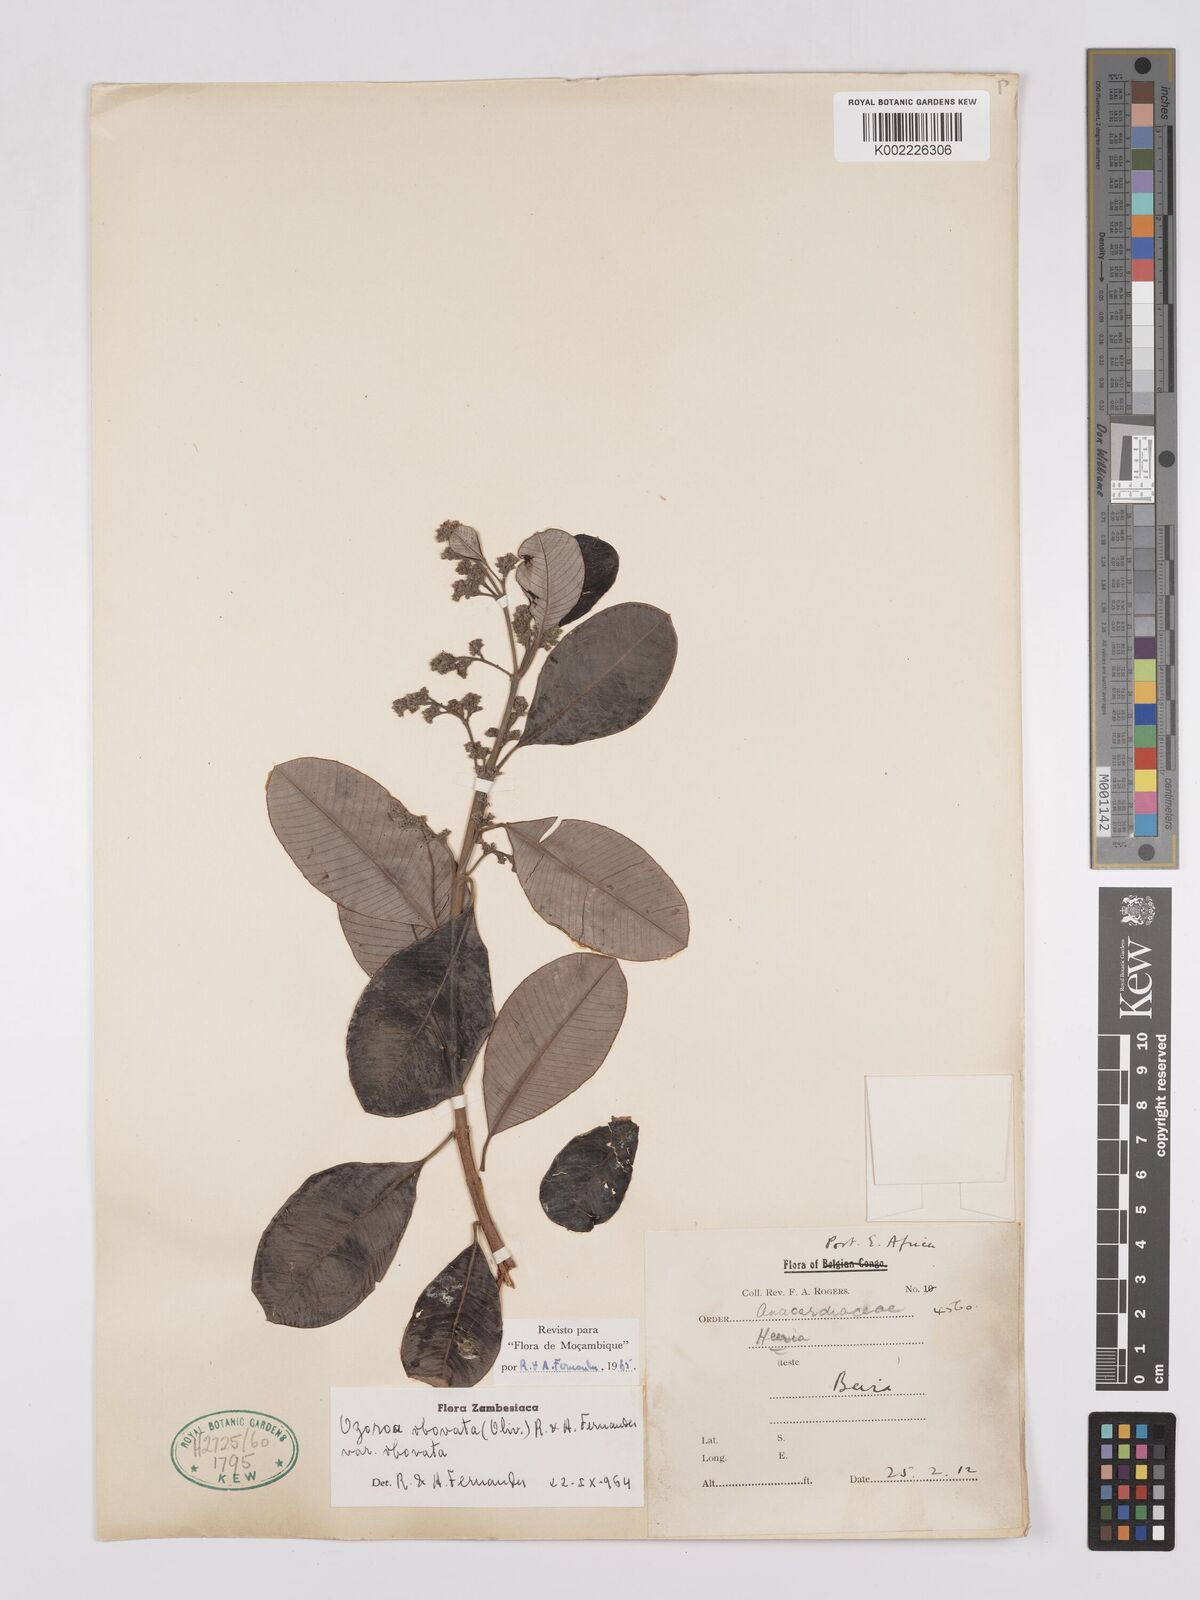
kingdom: Plantae
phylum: Tracheophyta
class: Magnoliopsida
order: Sapindales
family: Anacardiaceae
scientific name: Anacardiaceae
